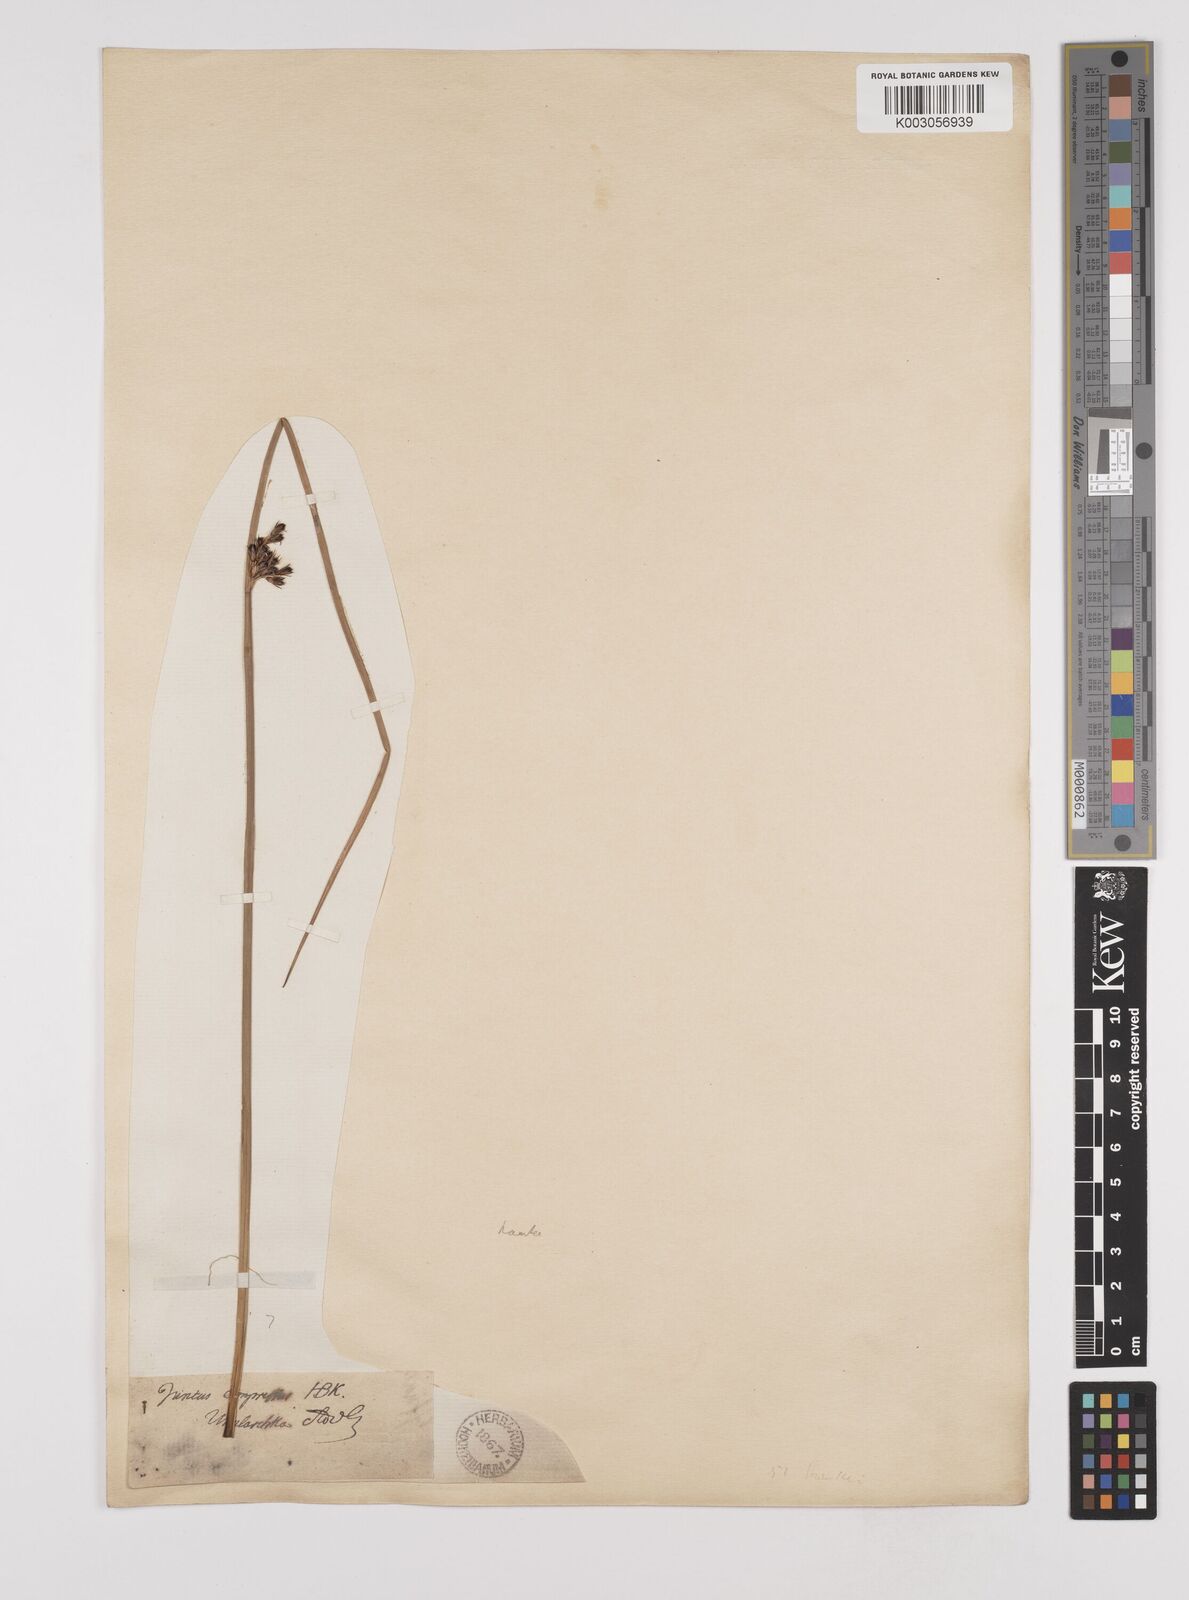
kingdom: Plantae
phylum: Tracheophyta
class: Liliopsida
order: Poales
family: Juncaceae
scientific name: Juncaceae
